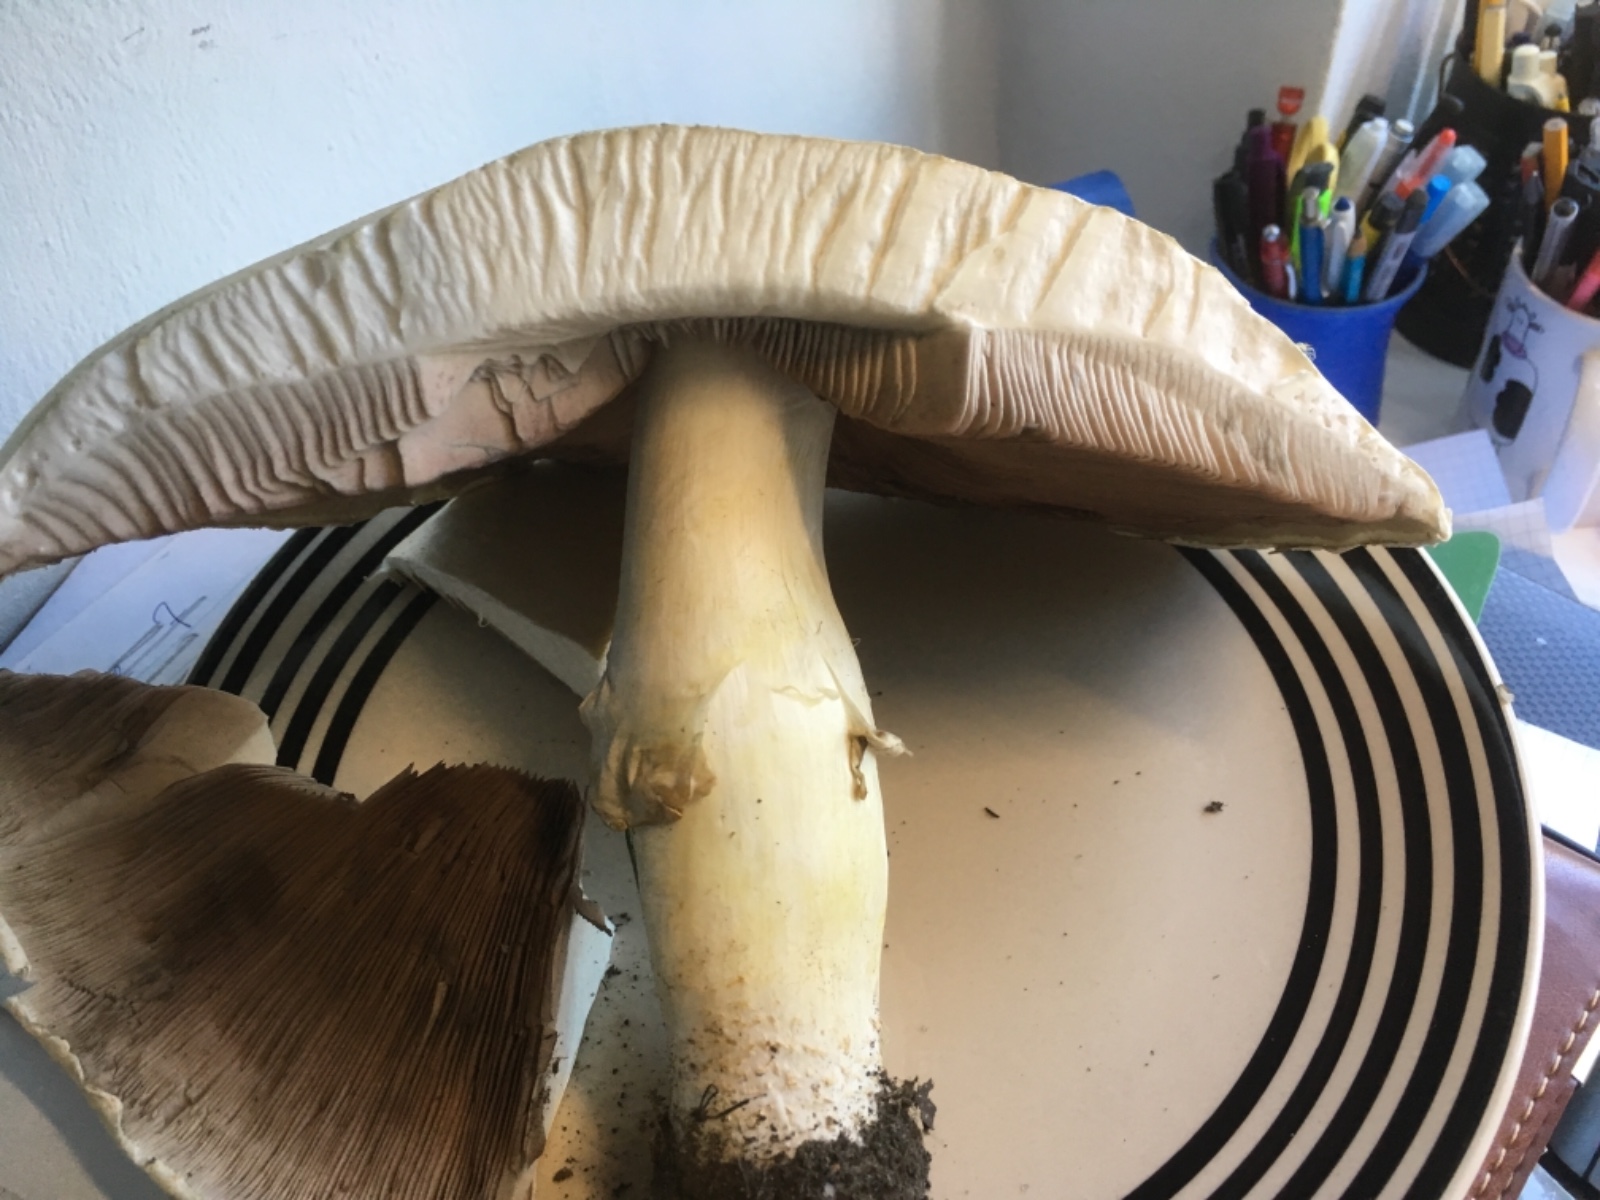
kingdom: Fungi
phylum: Basidiomycota
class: Agaricomycetes
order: Agaricales
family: Agaricaceae
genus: Agaricus
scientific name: Agaricus arvensis
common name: ager-champignon
